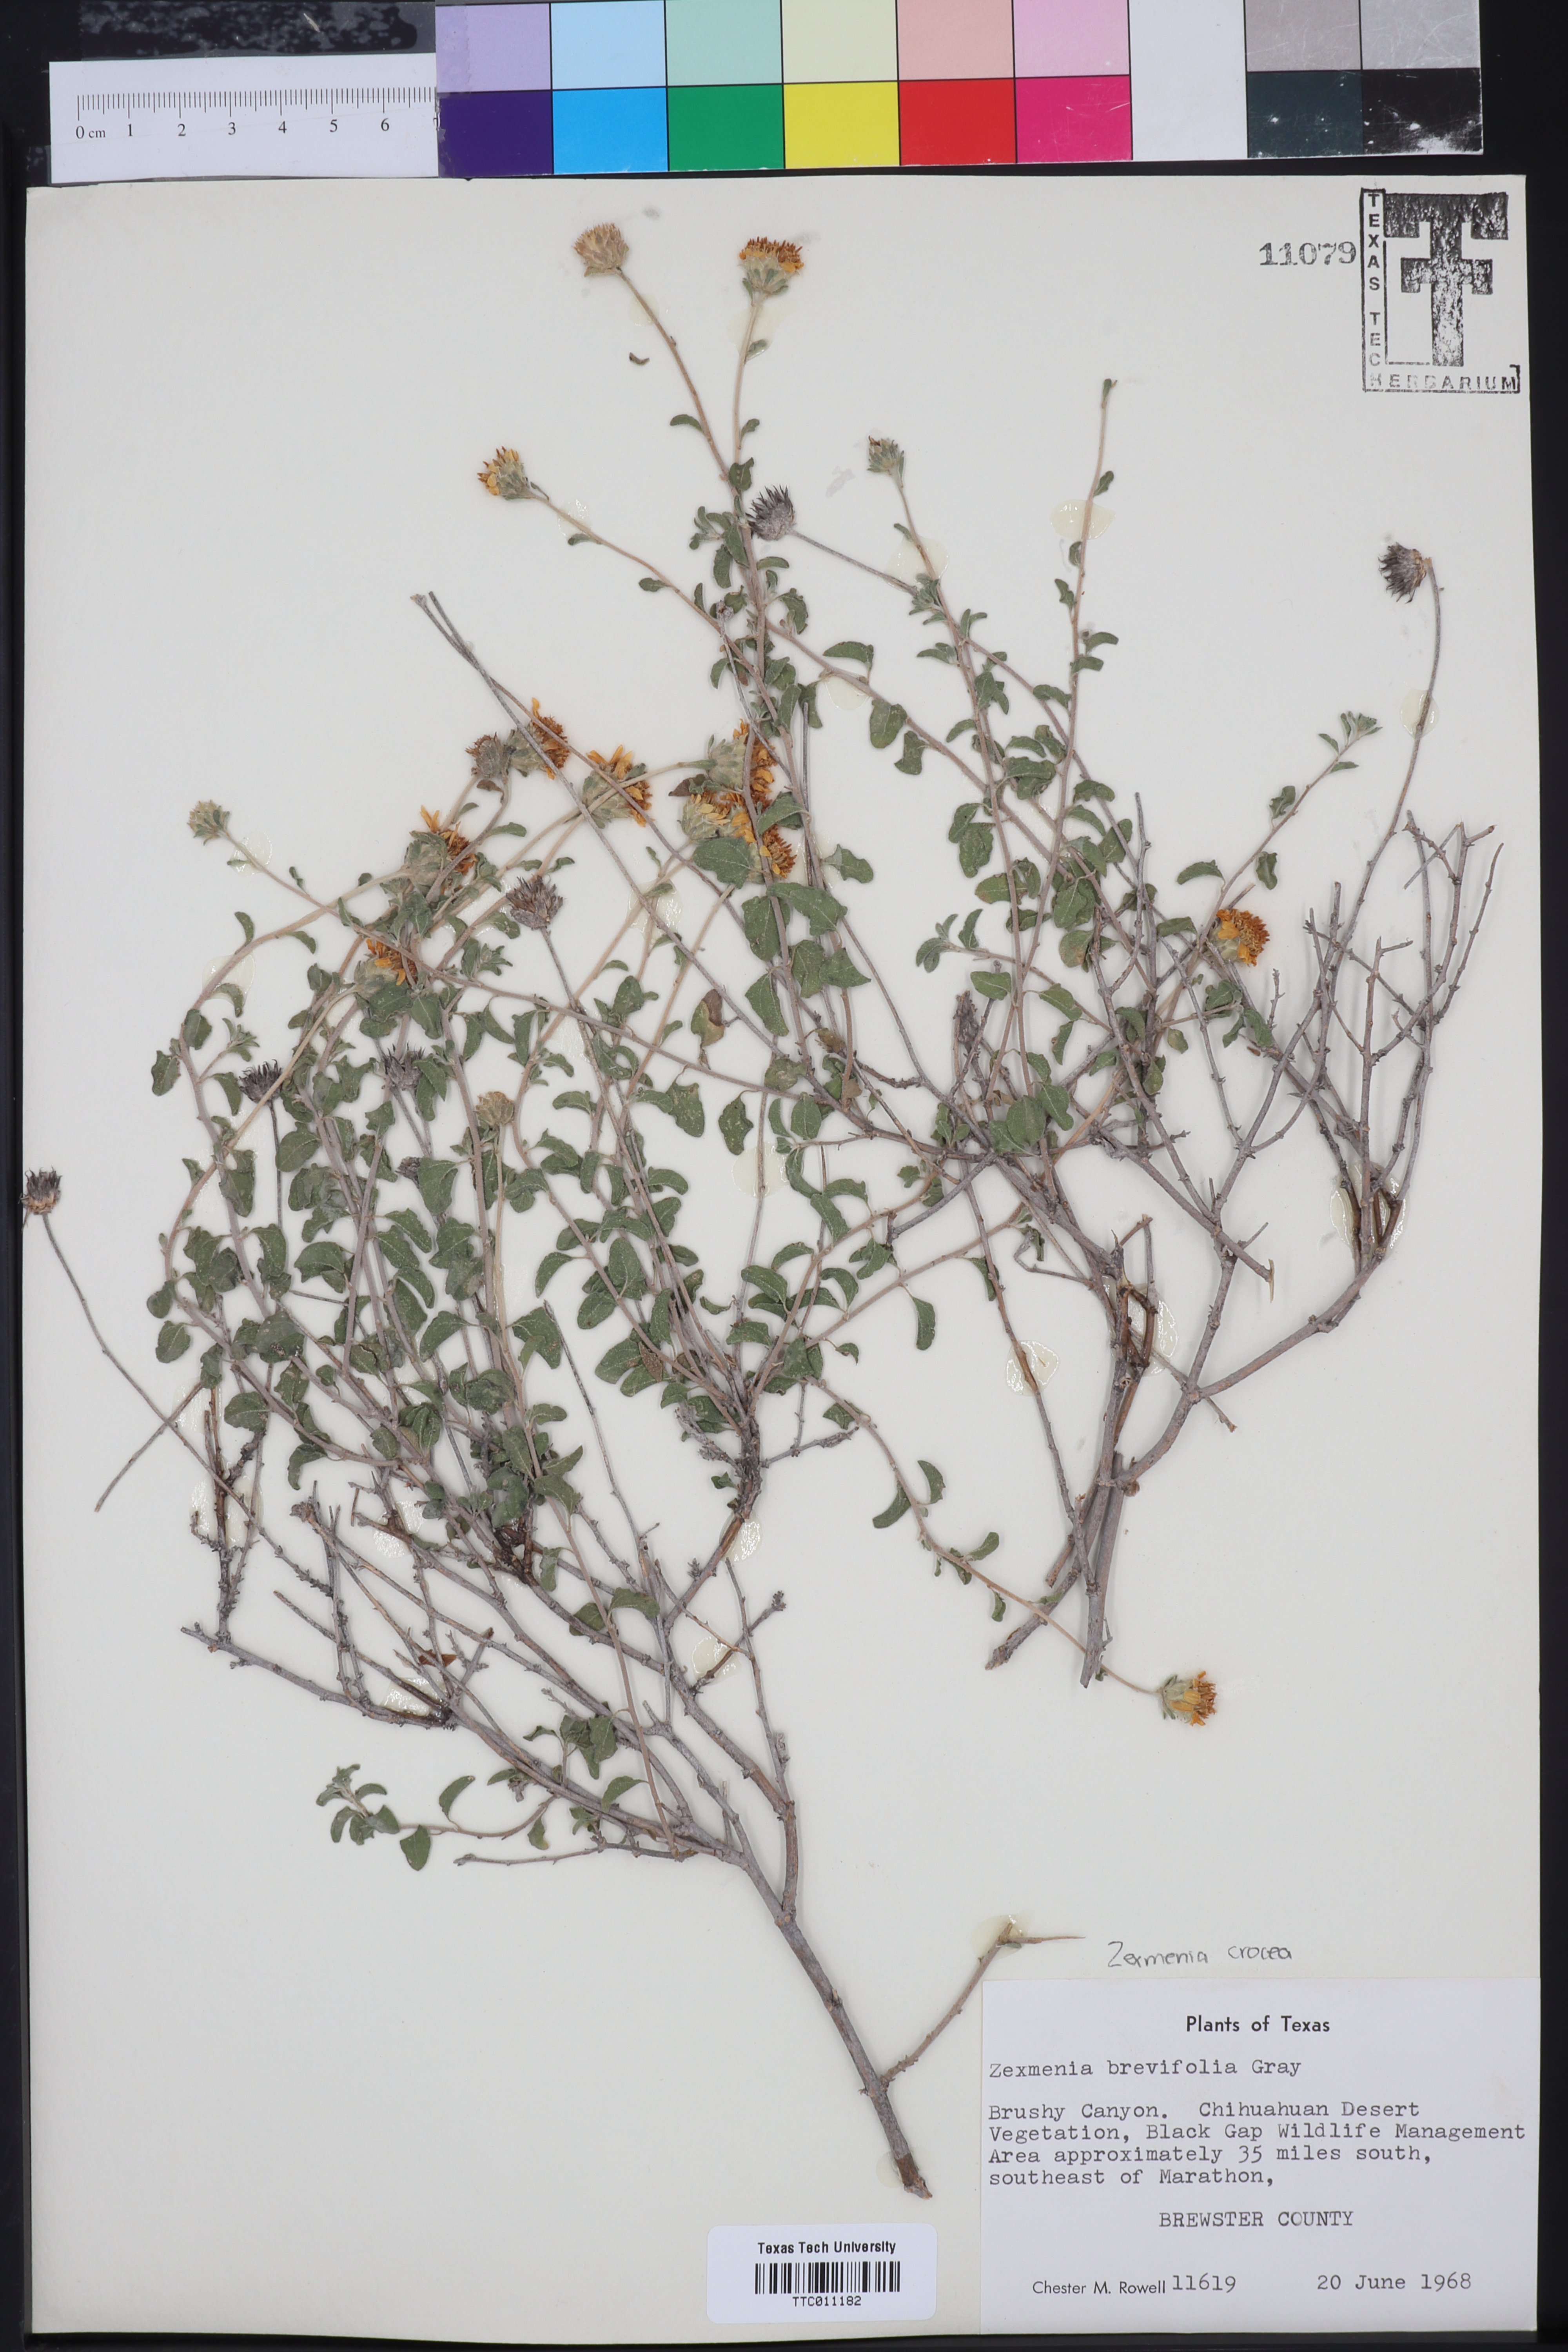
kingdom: Plantae
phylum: Tracheophyta
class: Magnoliopsida
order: Asterales
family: Asteraceae
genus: Jefea
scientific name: Jefea brevifolia
